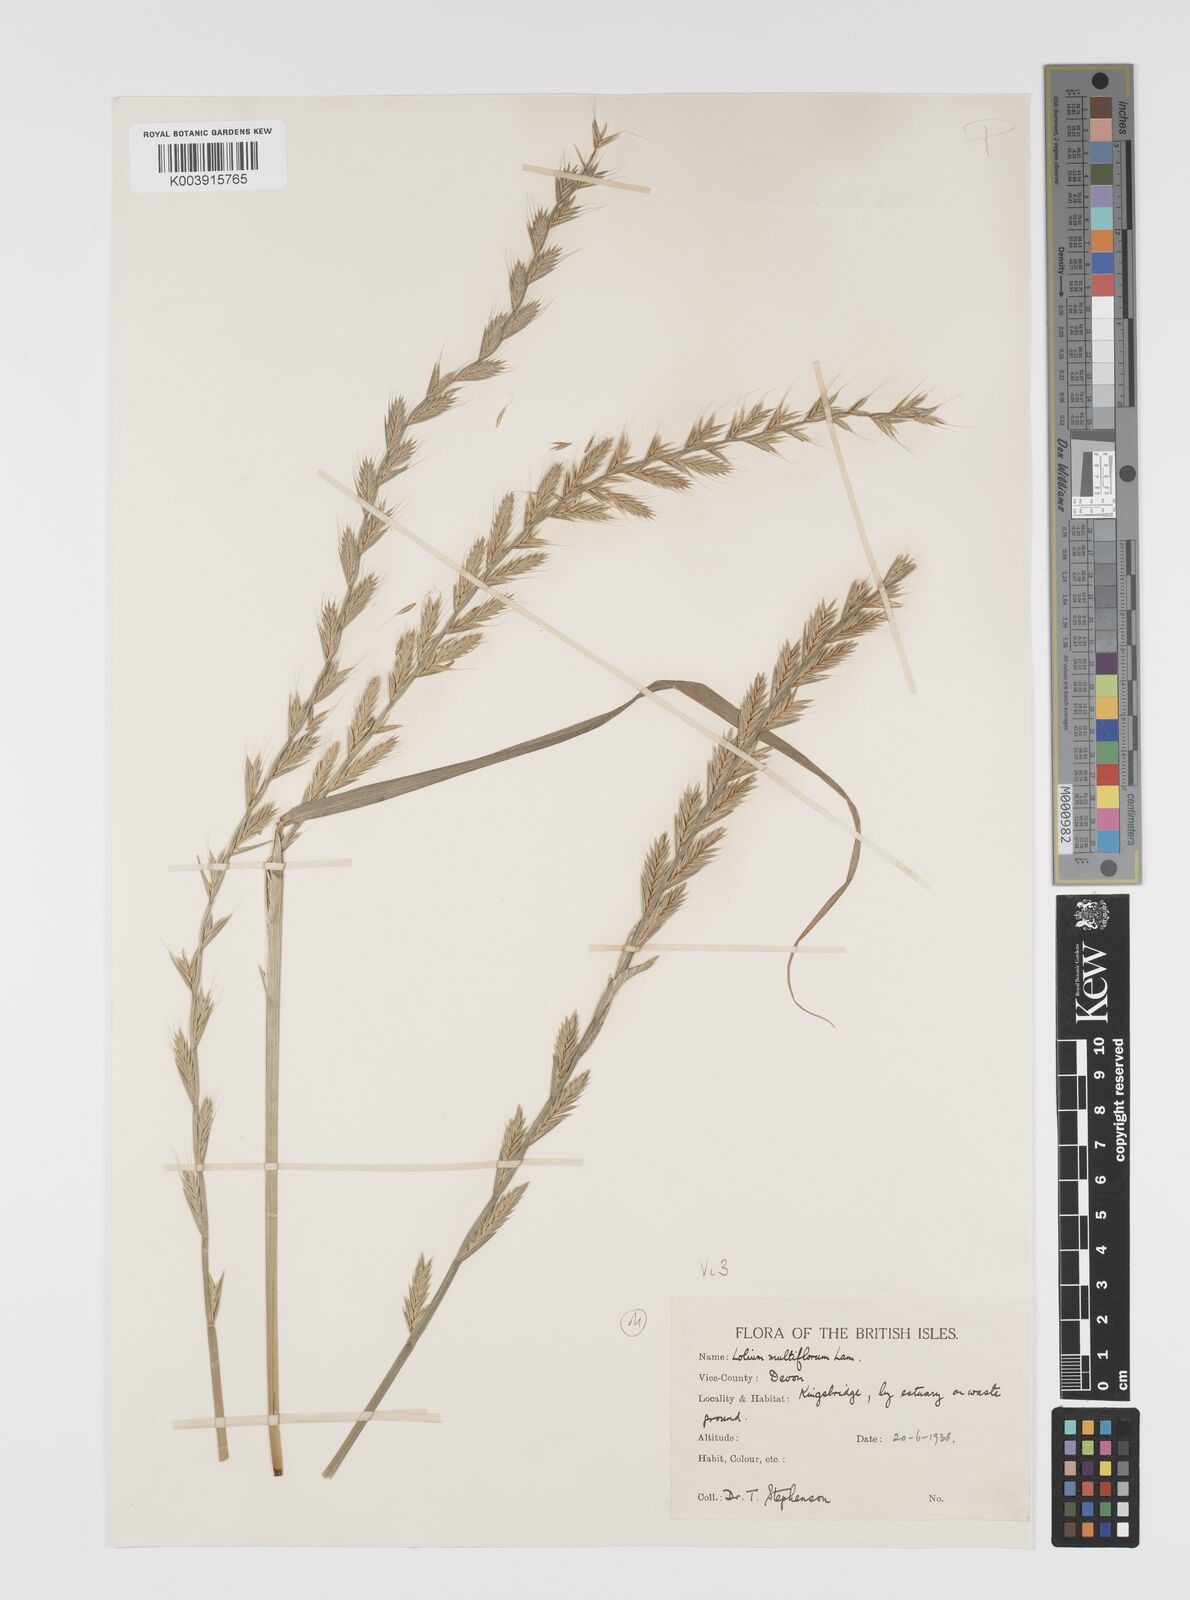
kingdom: Plantae
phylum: Tracheophyta
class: Liliopsida
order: Poales
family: Poaceae
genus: Lolium
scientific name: Lolium multiflorum
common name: Annual ryegrass
